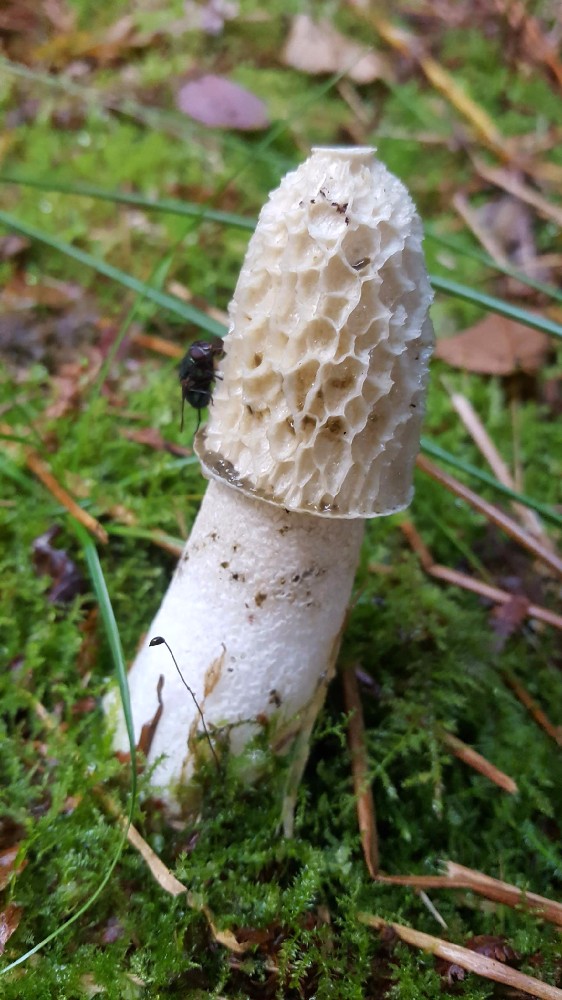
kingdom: Fungi
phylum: Basidiomycota
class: Agaricomycetes
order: Phallales
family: Phallaceae
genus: Phallus
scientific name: Phallus impudicus
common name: almindelig stinksvamp
